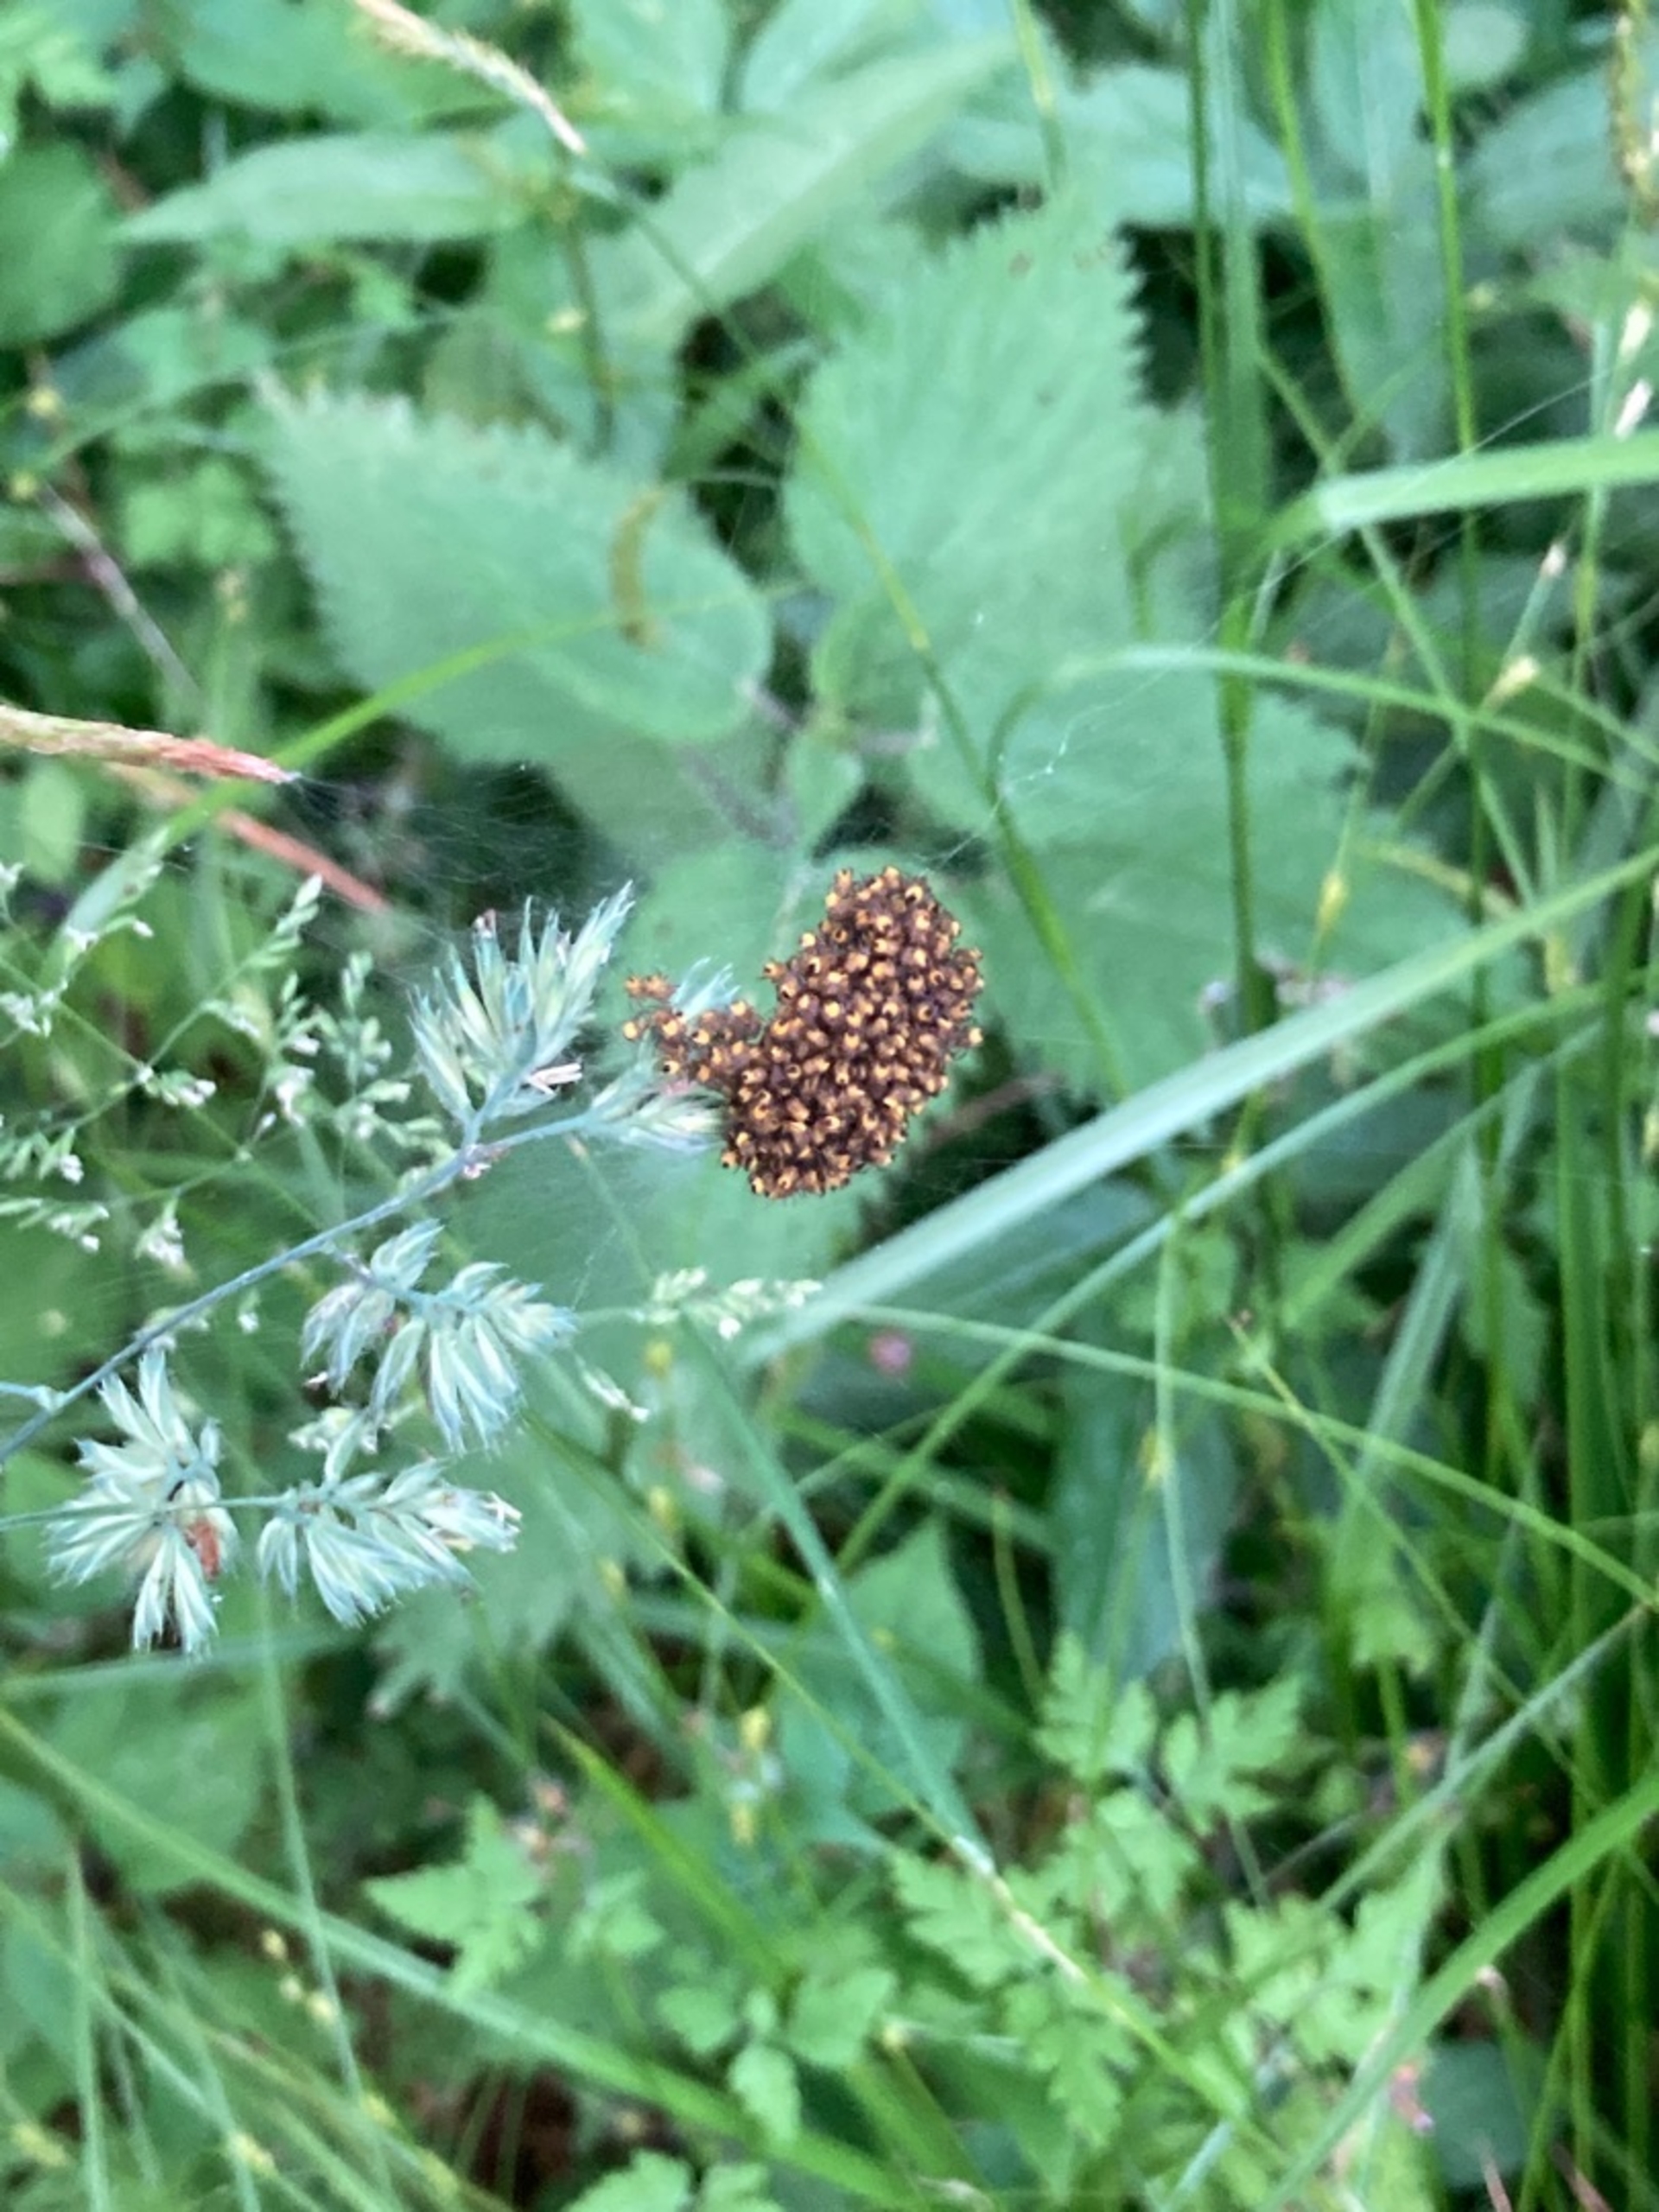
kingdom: Animalia
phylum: Arthropoda
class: Arachnida
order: Araneae
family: Araneidae
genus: Araneus
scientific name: Araneus diadematus
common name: Korsedderkop
